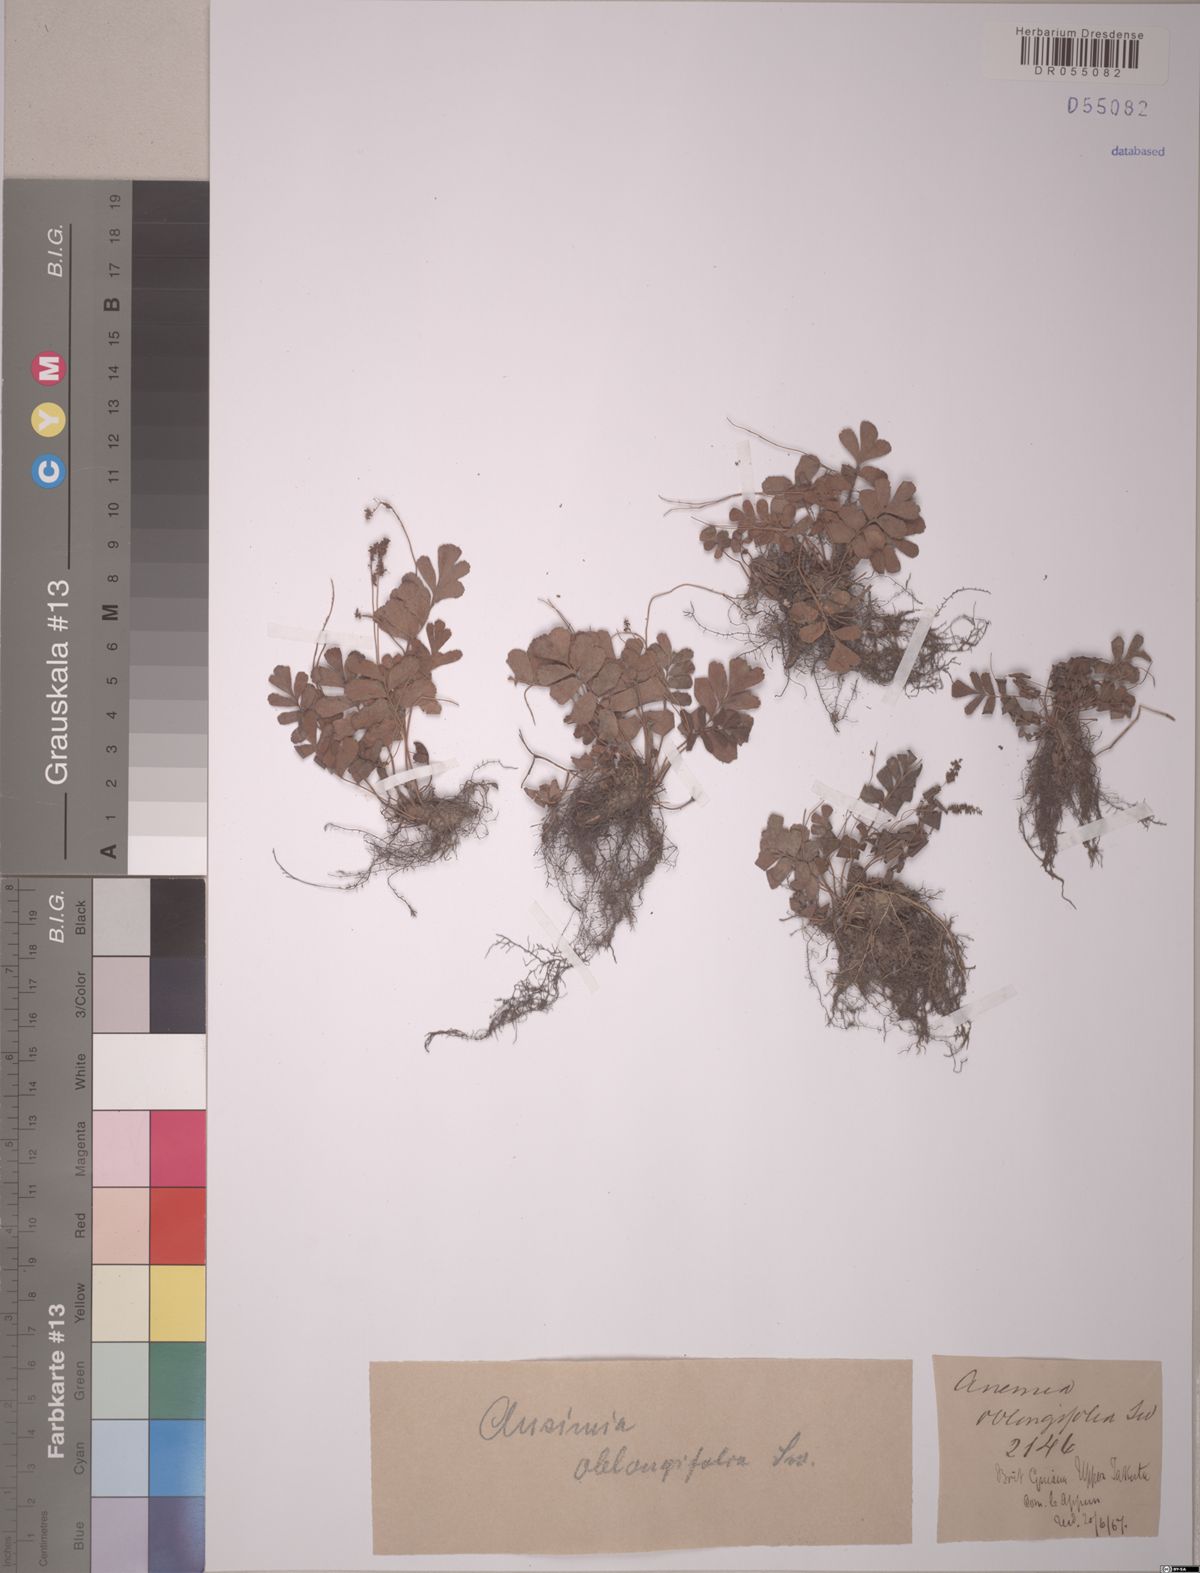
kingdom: Plantae
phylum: Tracheophyta
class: Polypodiopsida
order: Schizaeales
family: Anemiaceae
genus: Anemia
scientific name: Anemia oblongifolia
